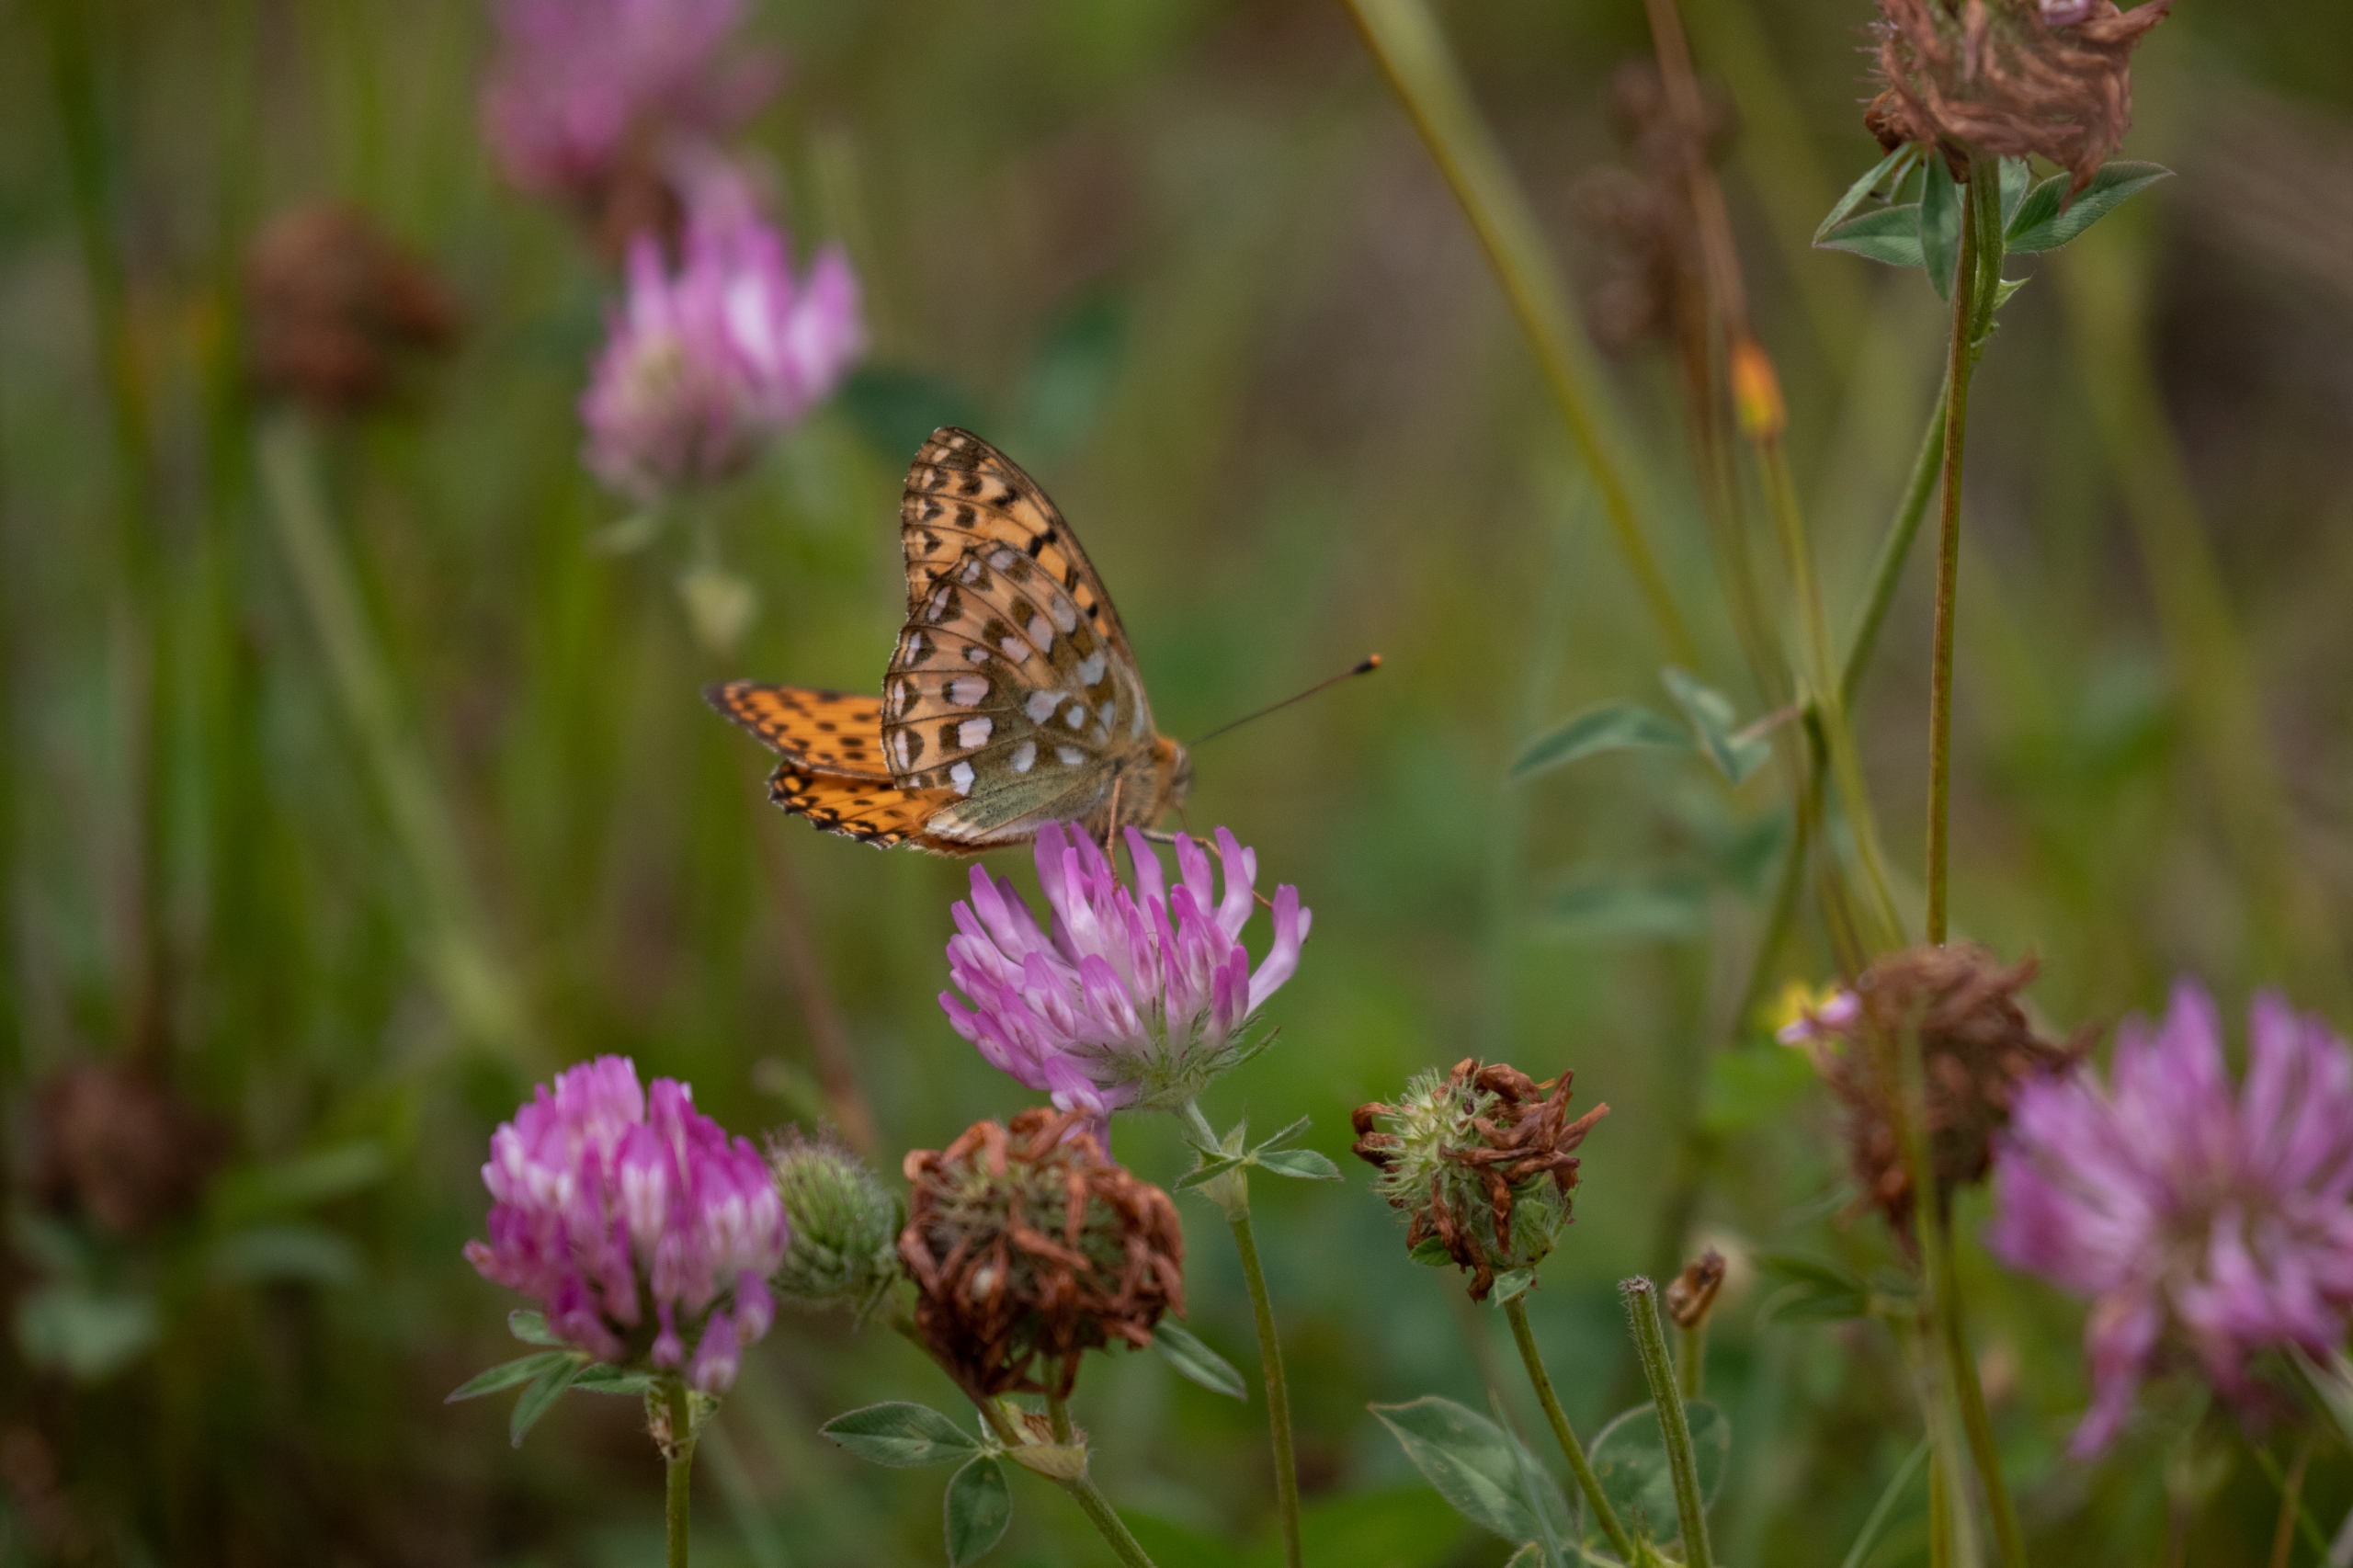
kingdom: Animalia
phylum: Arthropoda
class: Insecta
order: Lepidoptera
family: Nymphalidae
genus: Speyeria
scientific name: Speyeria aglaja
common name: Markperlemorsommerfugl
